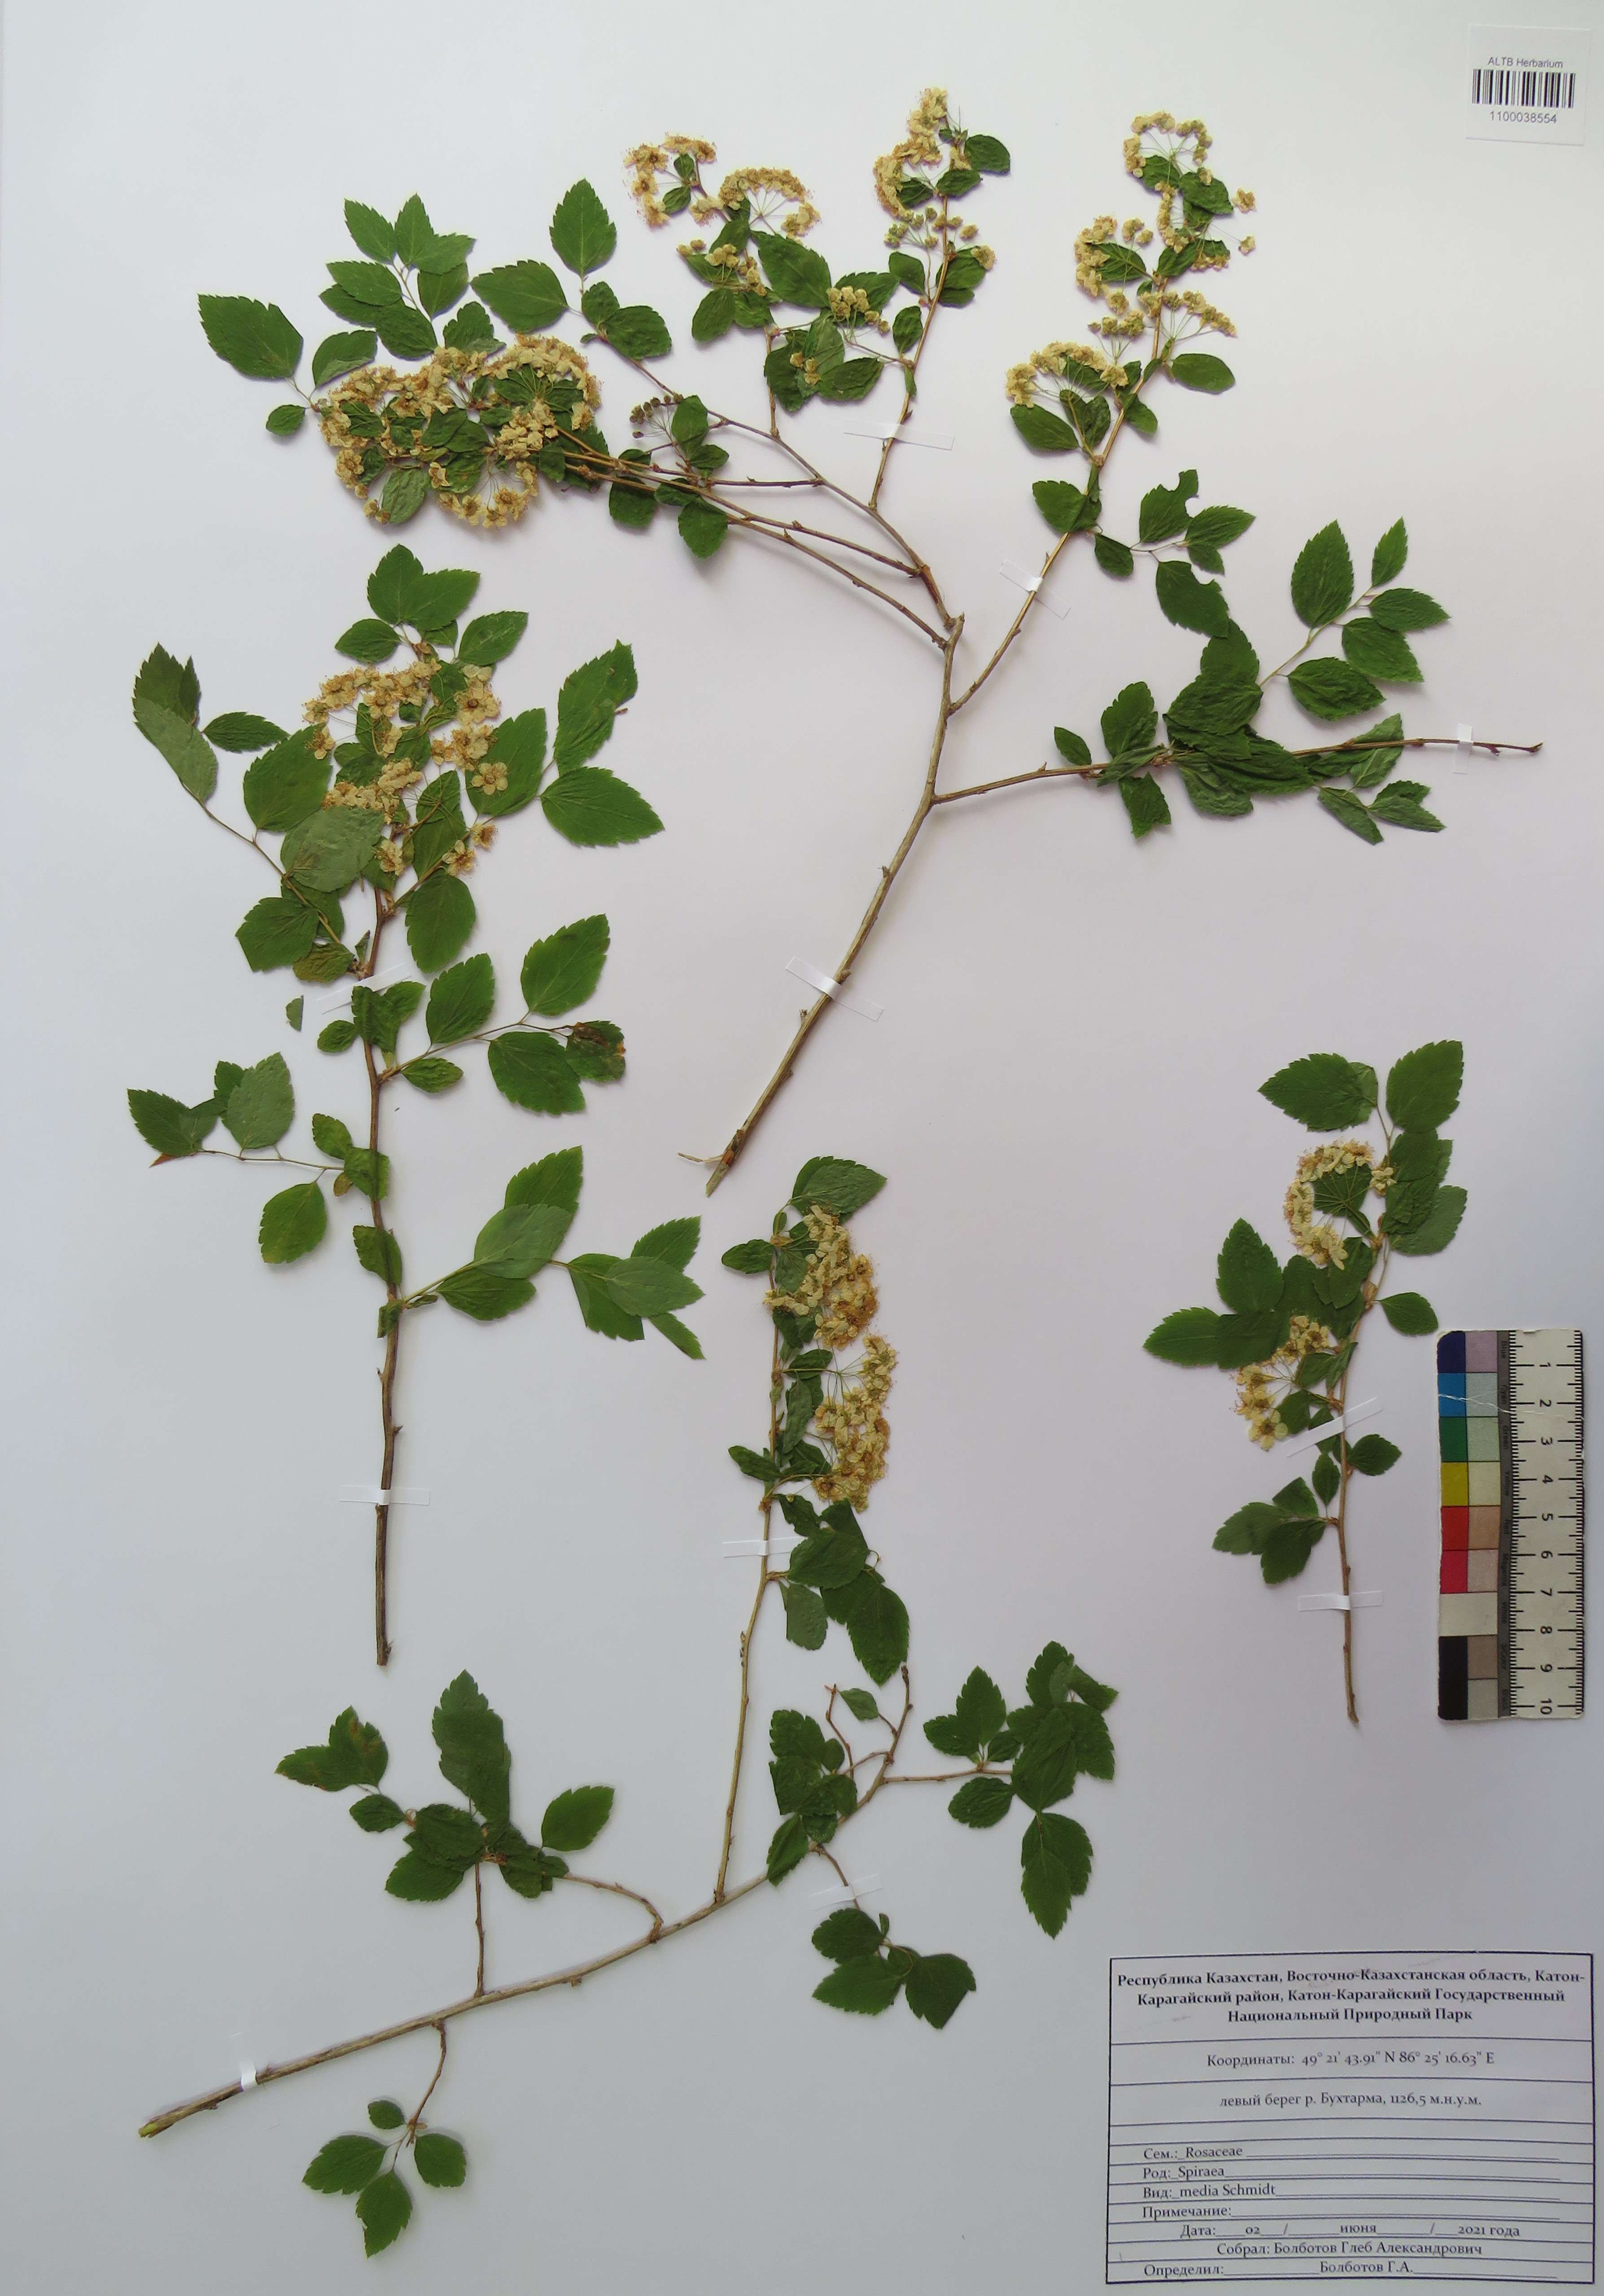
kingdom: Plantae
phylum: Tracheophyta
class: Magnoliopsida
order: Rosales
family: Rosaceae
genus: Spiraea
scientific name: Spiraea media
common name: Russian spiraea
